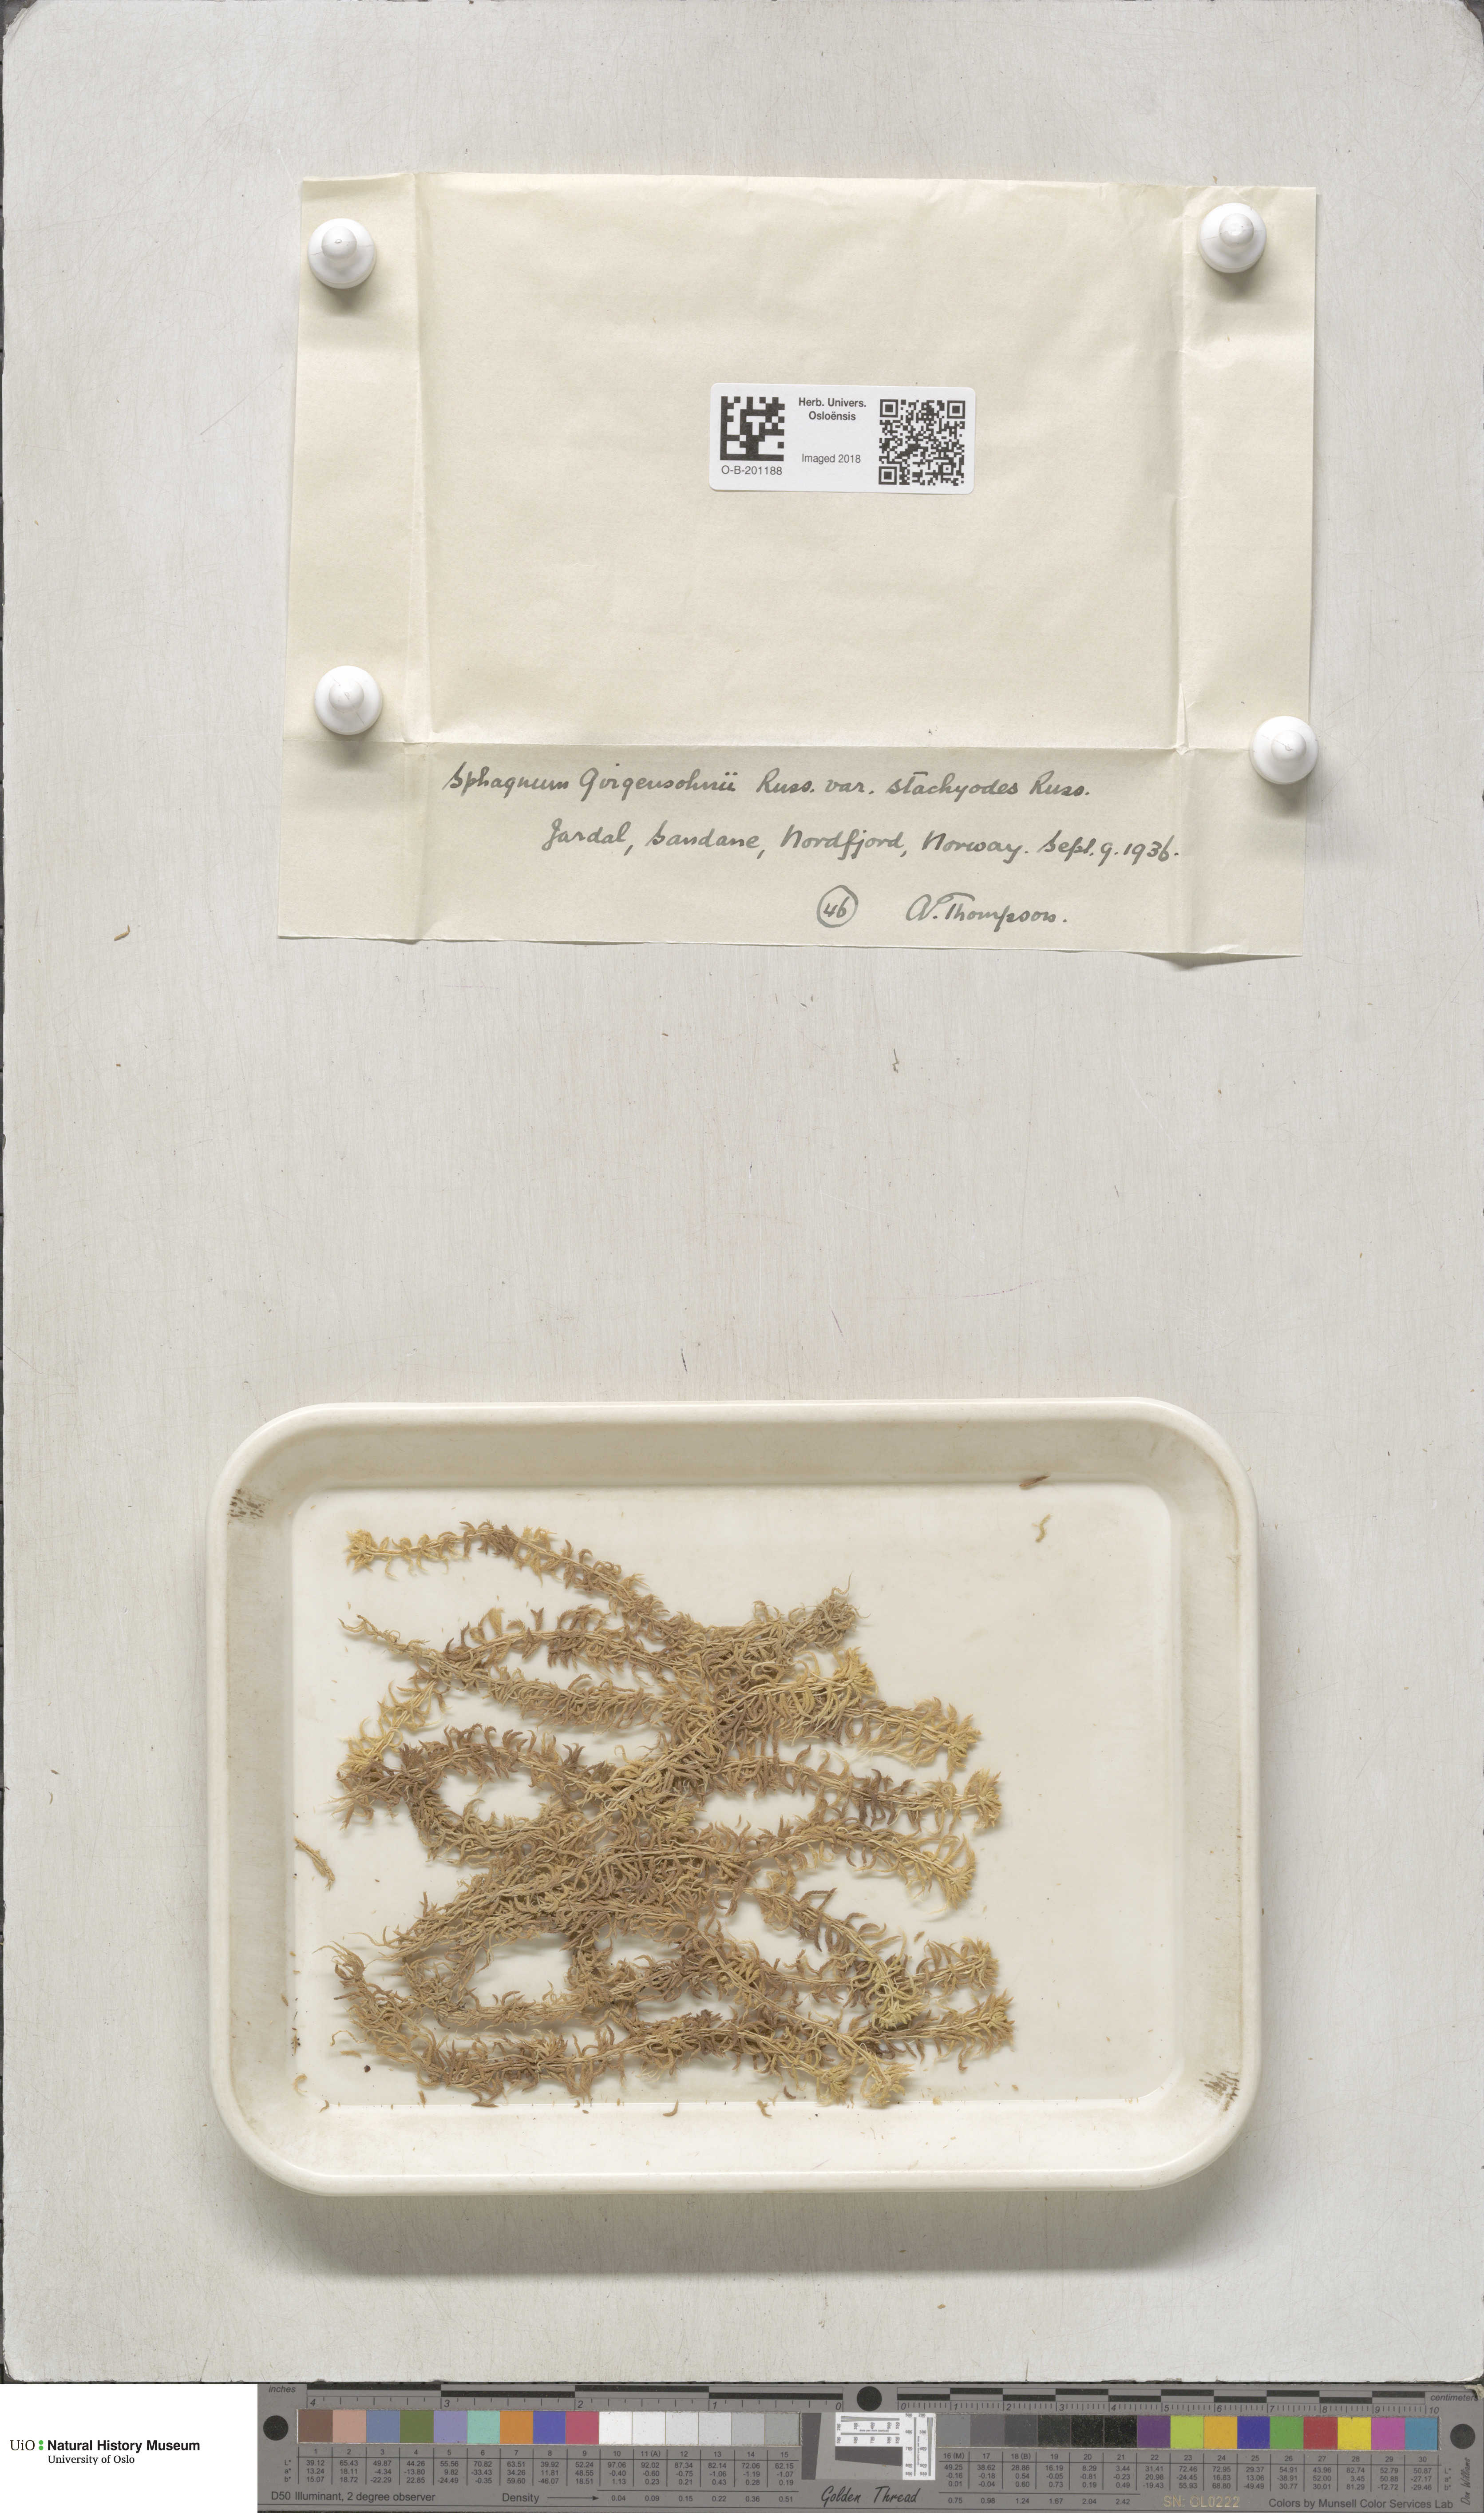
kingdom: Plantae
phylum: Bryophyta
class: Sphagnopsida
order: Sphagnales
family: Sphagnaceae
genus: Sphagnum
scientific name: Sphagnum girgensohnii
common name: Girgensohn's peat moss
